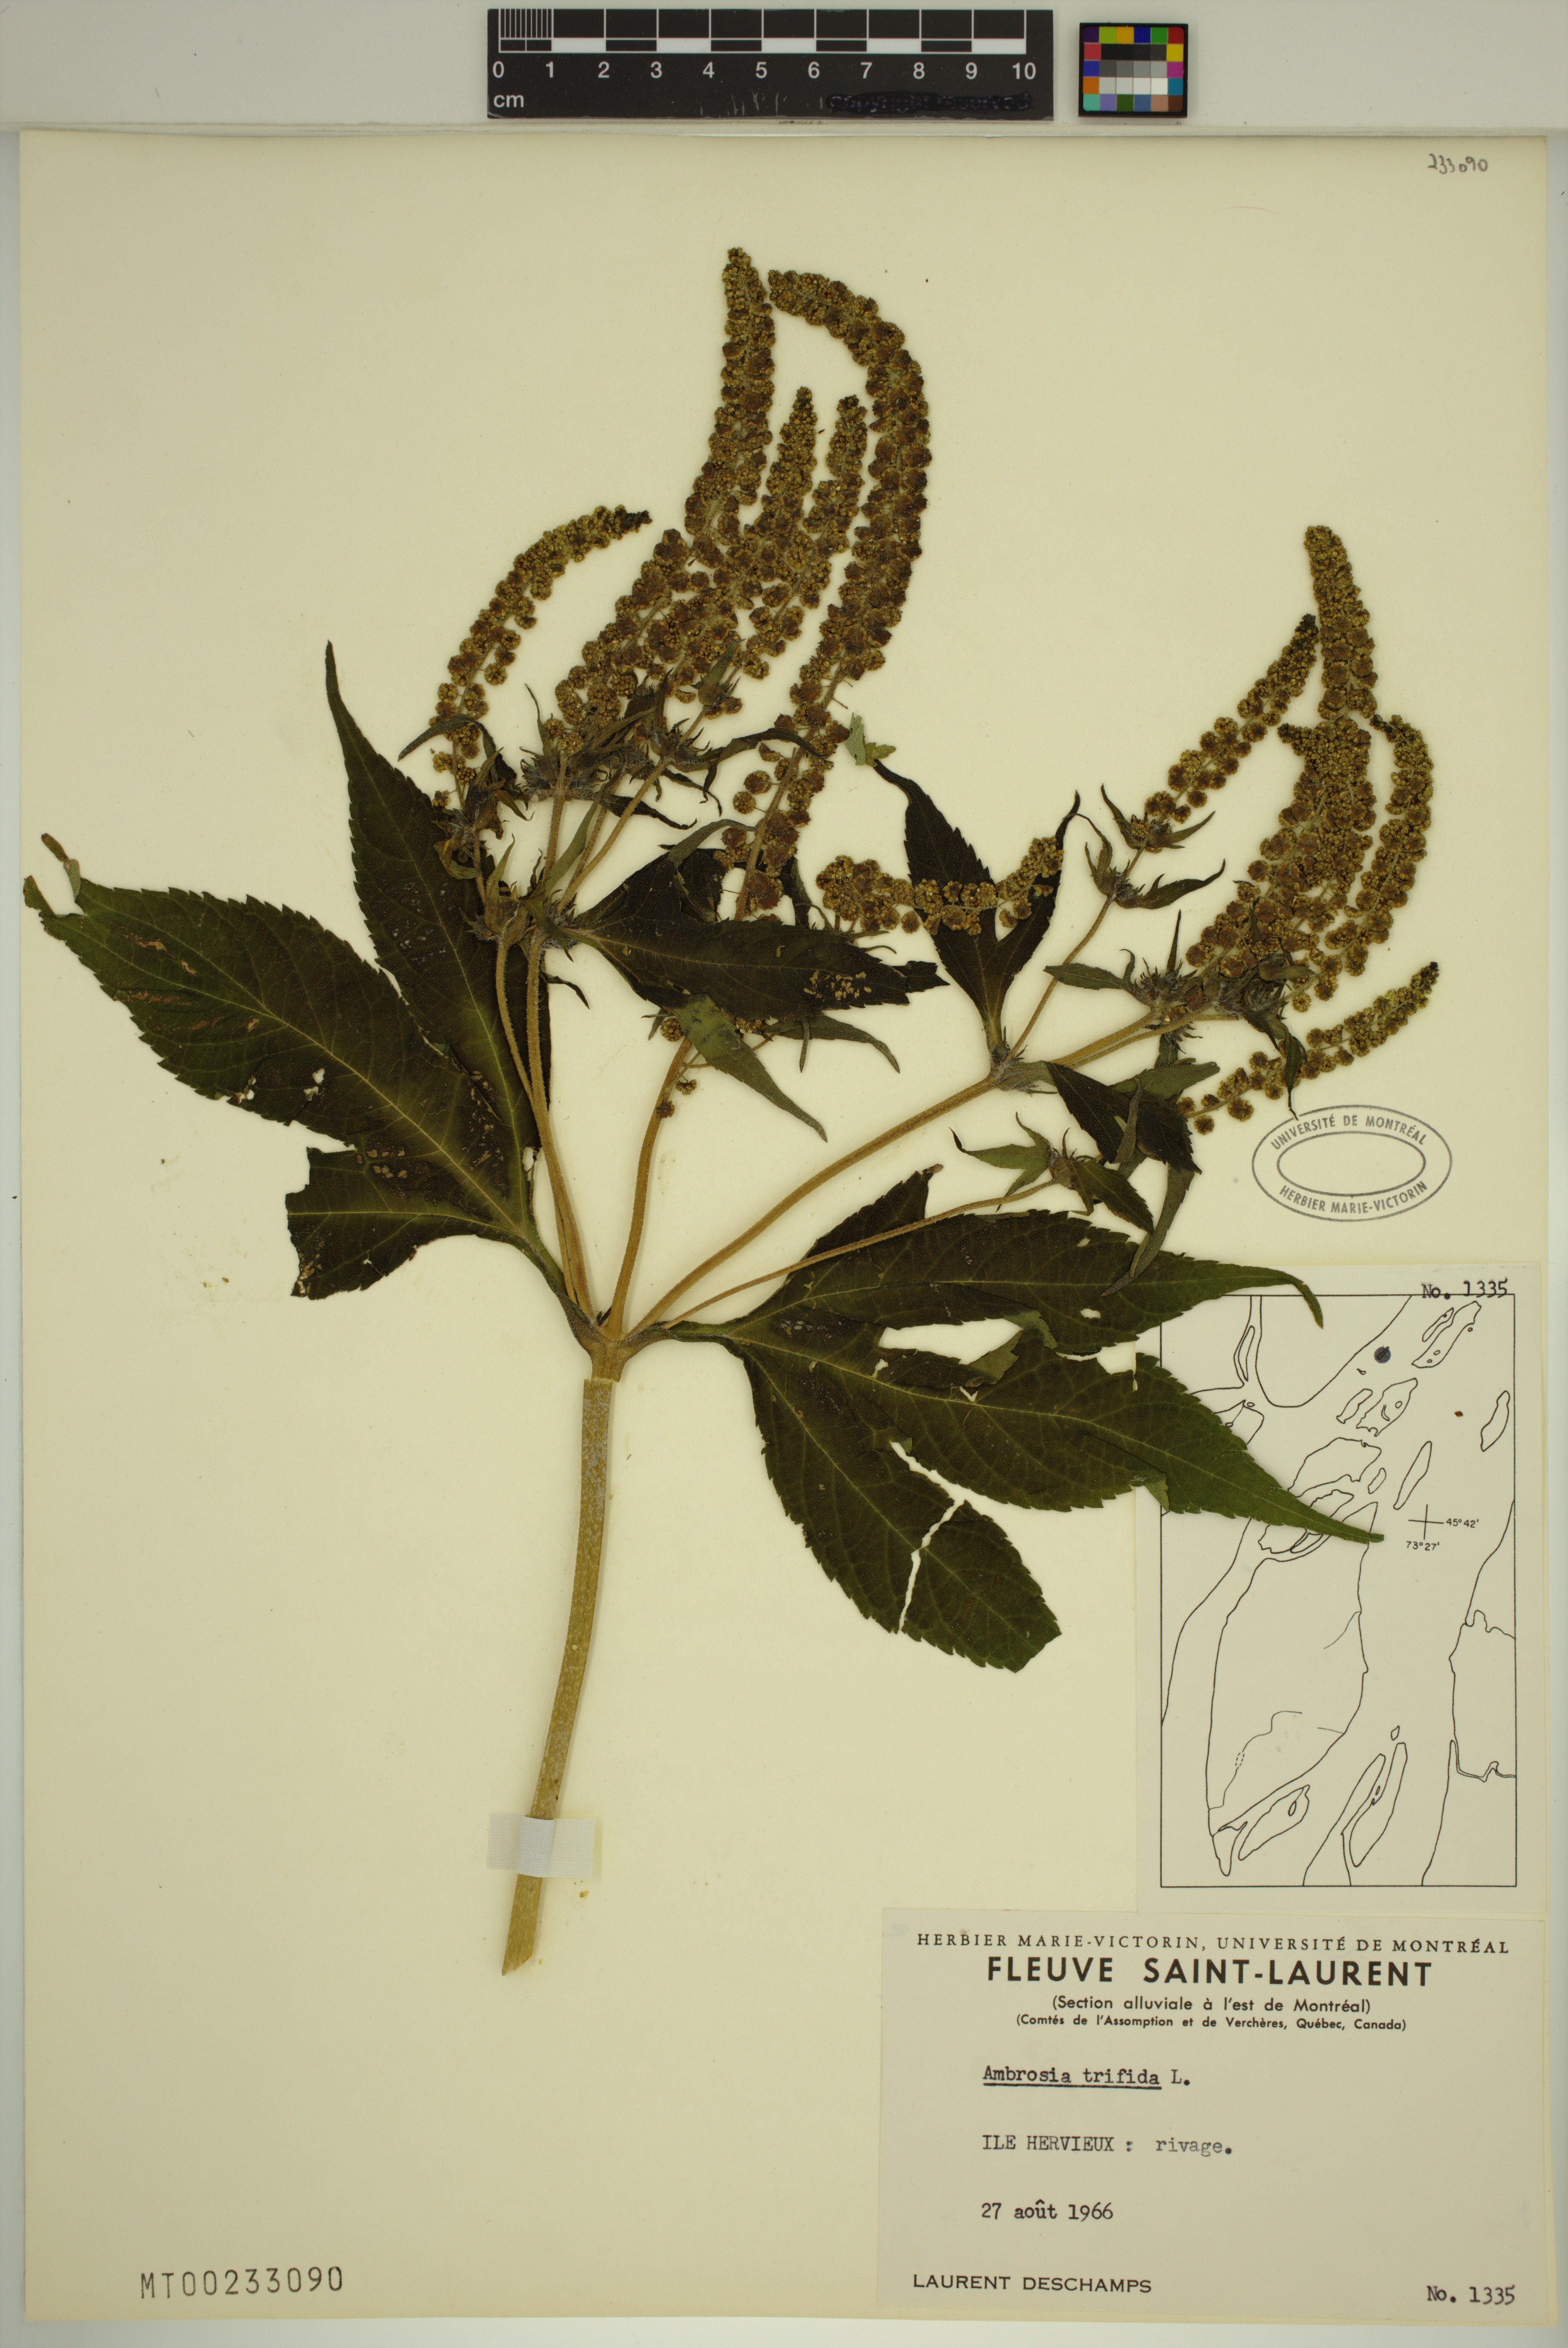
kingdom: Plantae
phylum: Tracheophyta
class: Magnoliopsida
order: Asterales
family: Asteraceae
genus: Ambrosia
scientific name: Ambrosia trifida
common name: Giant ragweed
